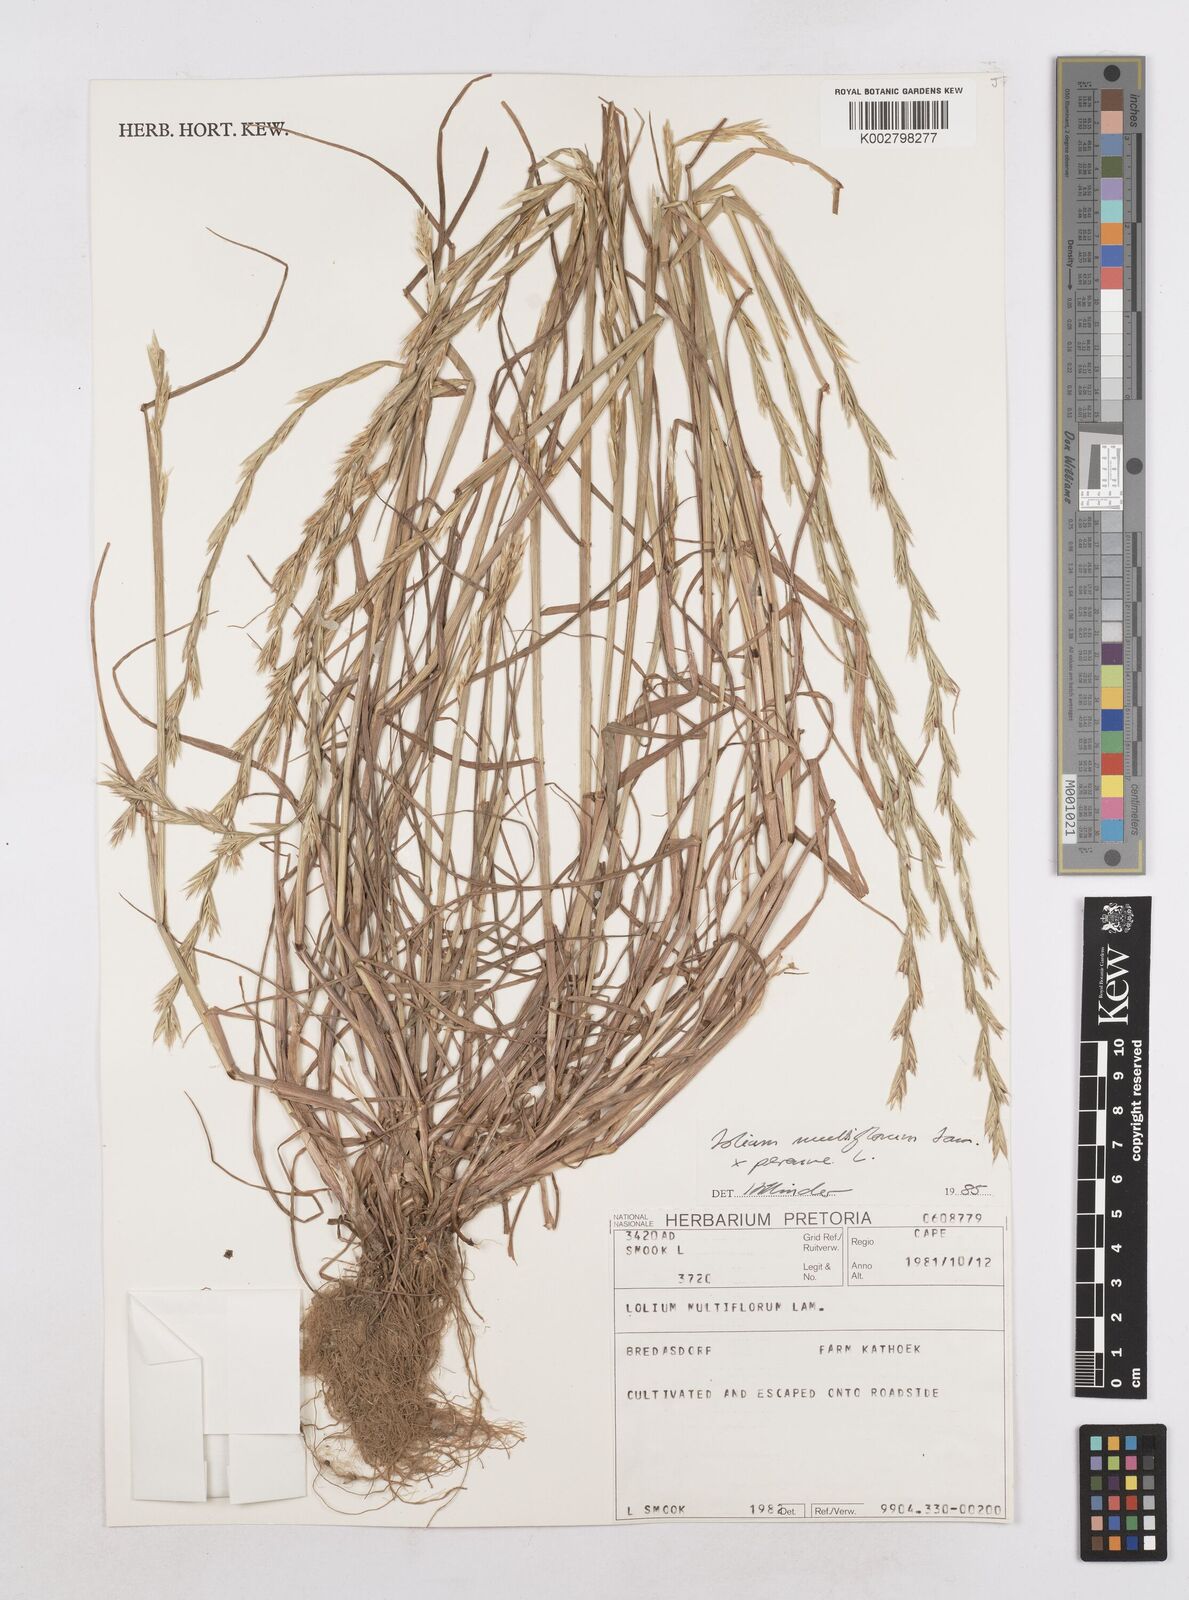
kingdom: Plantae
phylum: Tracheophyta
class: Liliopsida
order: Poales
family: Poaceae
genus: Lolium
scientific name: Lolium multiflorum
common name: Annual ryegrass
